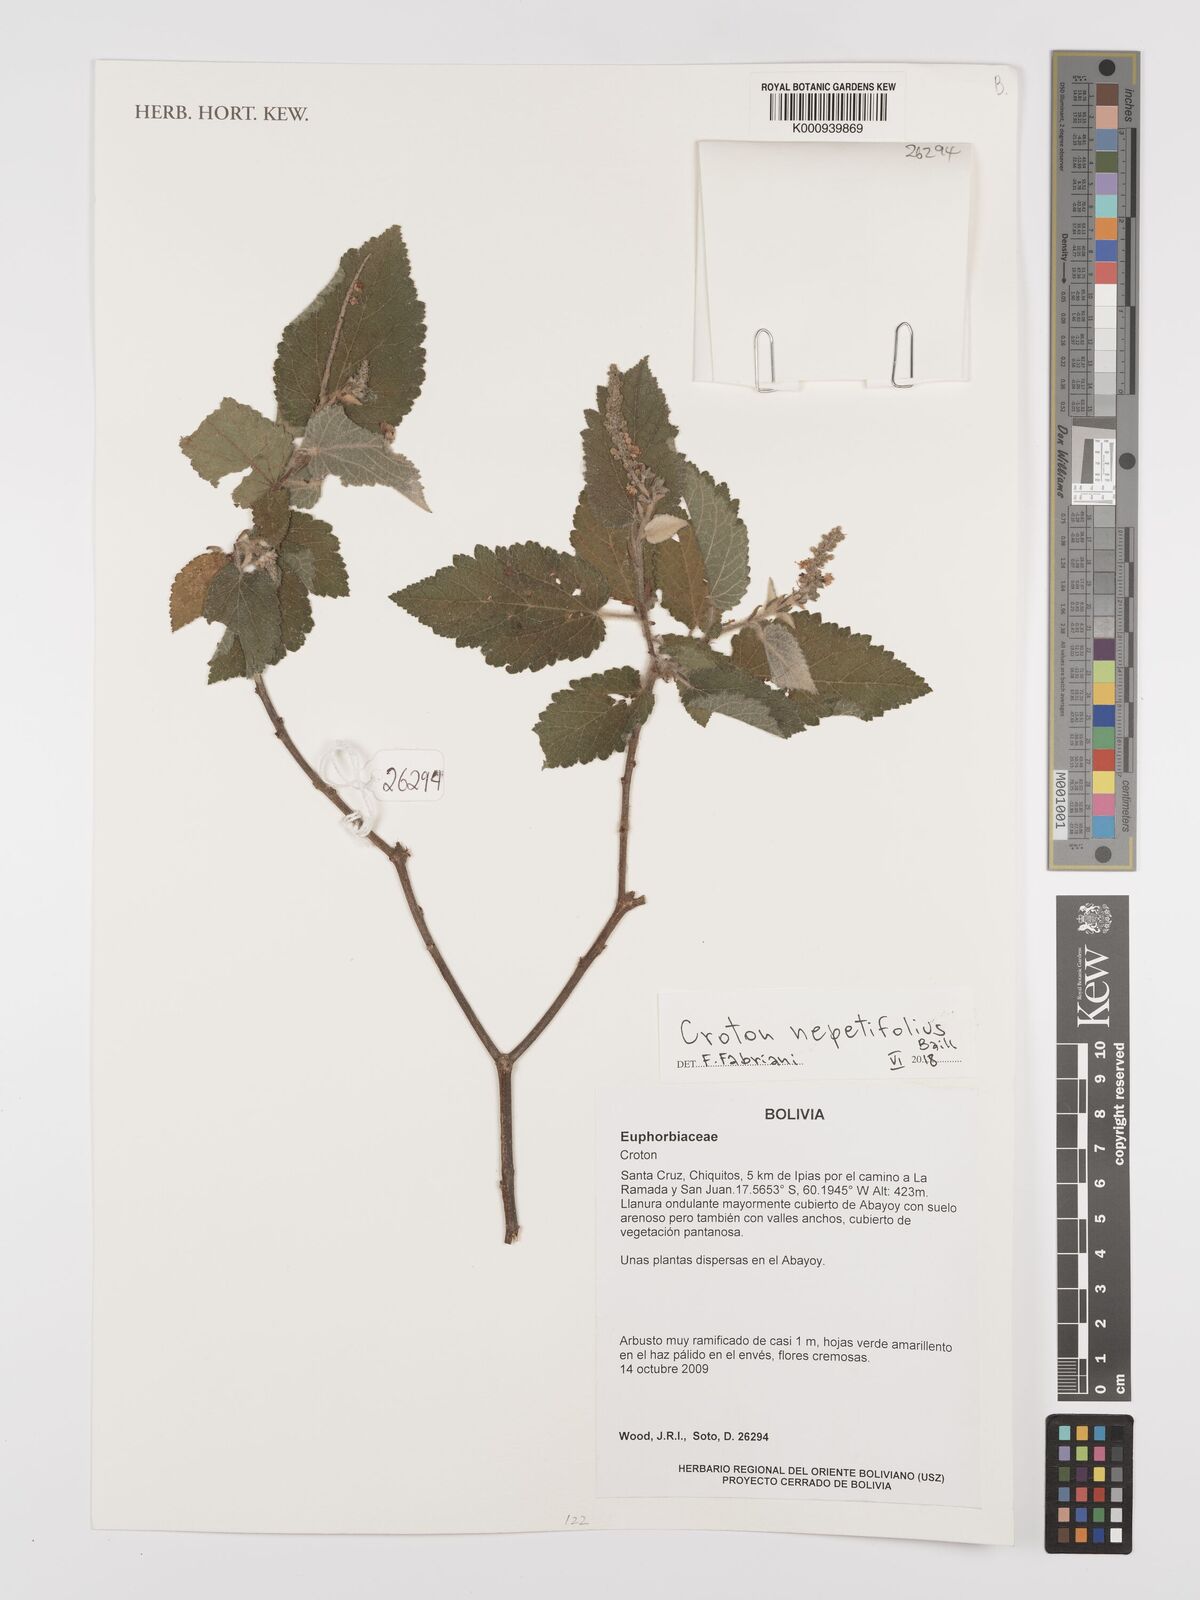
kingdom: Plantae
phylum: Tracheophyta
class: Magnoliopsida
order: Malpighiales
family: Euphorbiaceae
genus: Croton
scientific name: Croton nepetifolius
